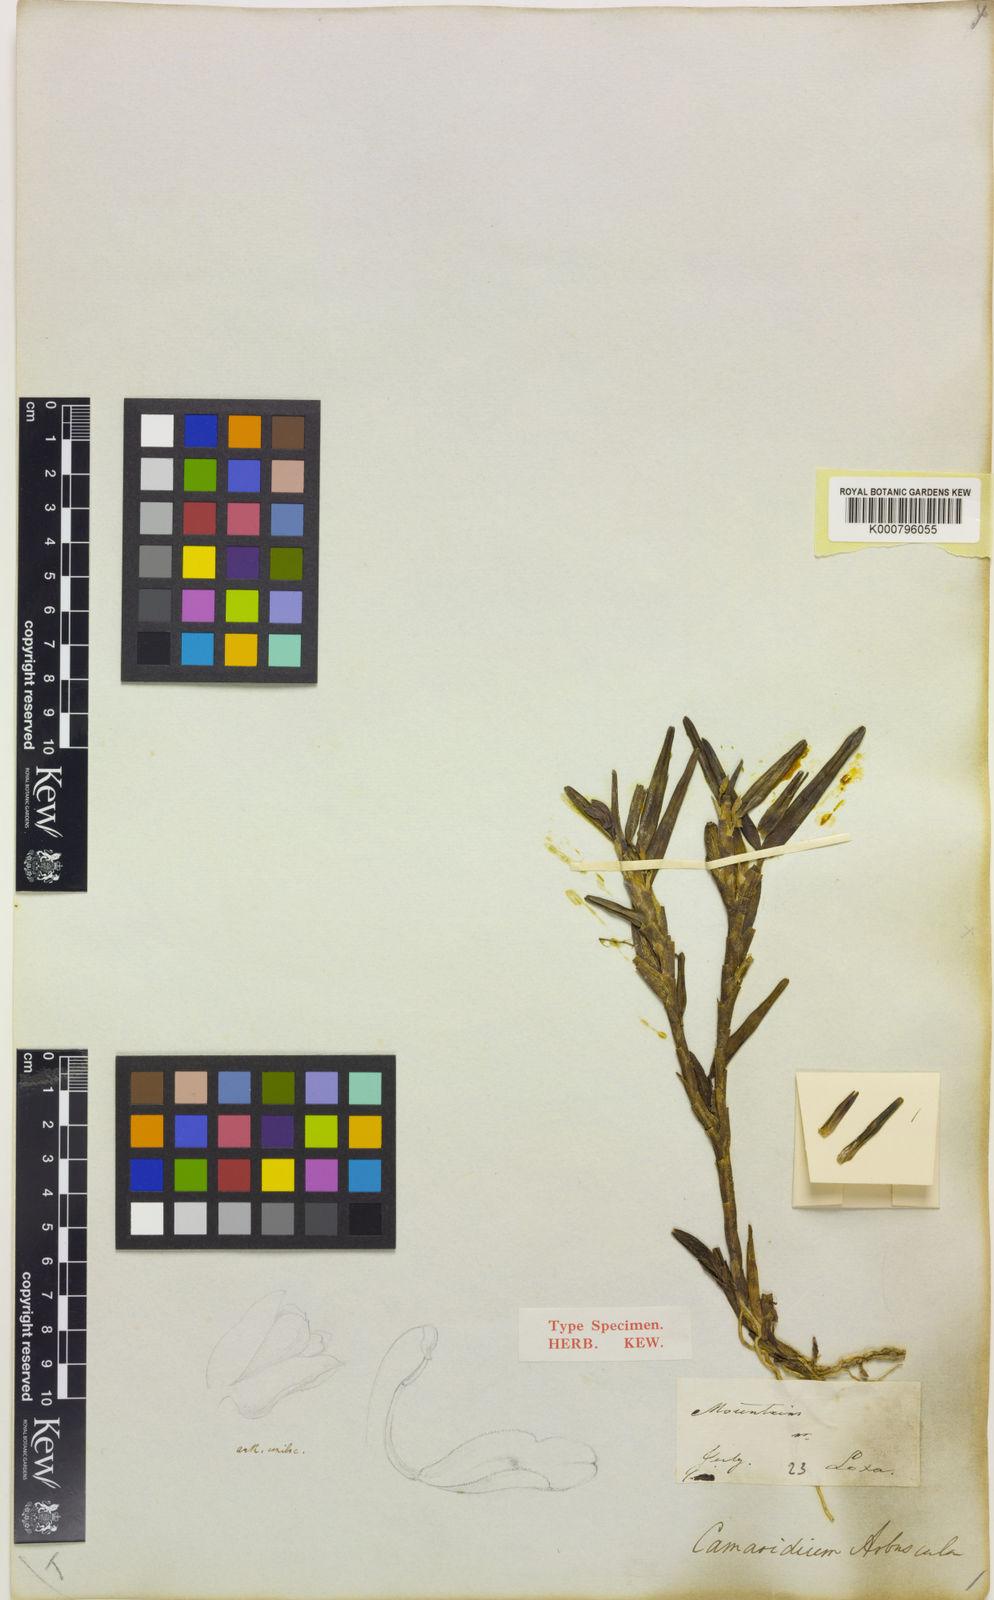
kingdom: Plantae
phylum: Tracheophyta
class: Liliopsida
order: Asparagales
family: Orchidaceae
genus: Maxillaria
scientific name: Maxillaria arbuscula
